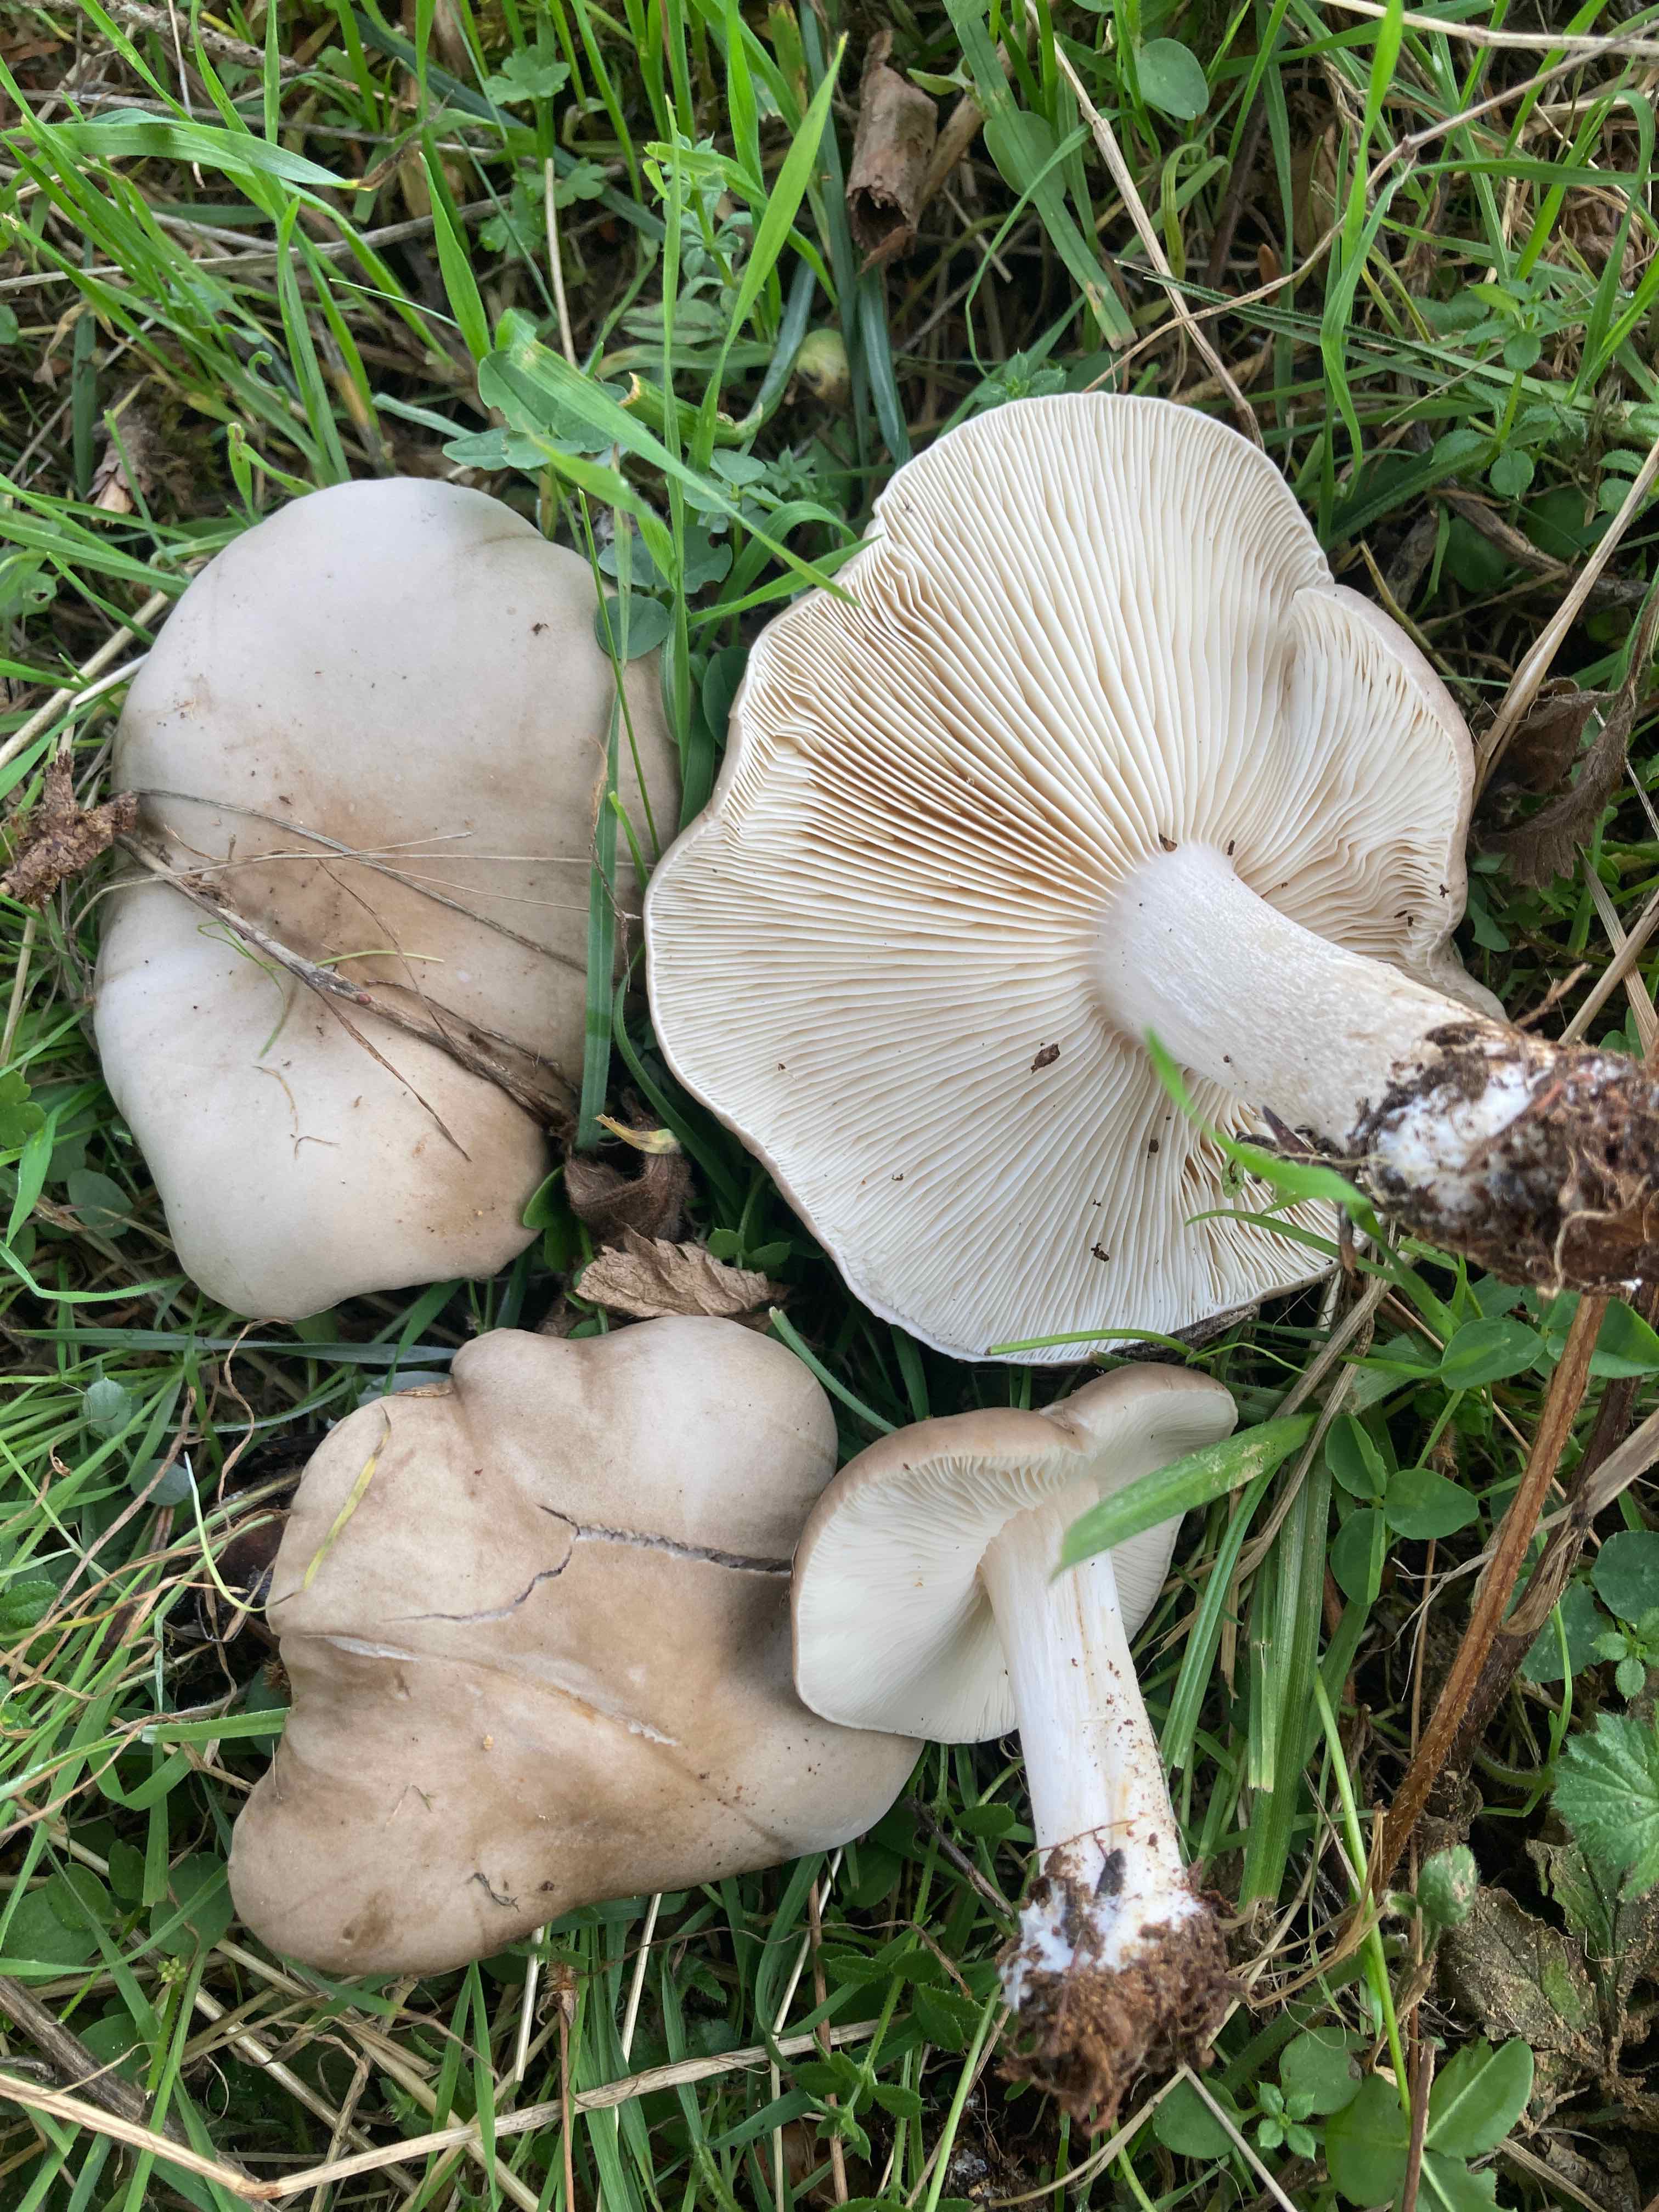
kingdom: Fungi
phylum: Basidiomycota
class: Agaricomycetes
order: Agaricales
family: Tricholomataceae
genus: Melanoleuca
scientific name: Melanoleuca
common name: munkehat
